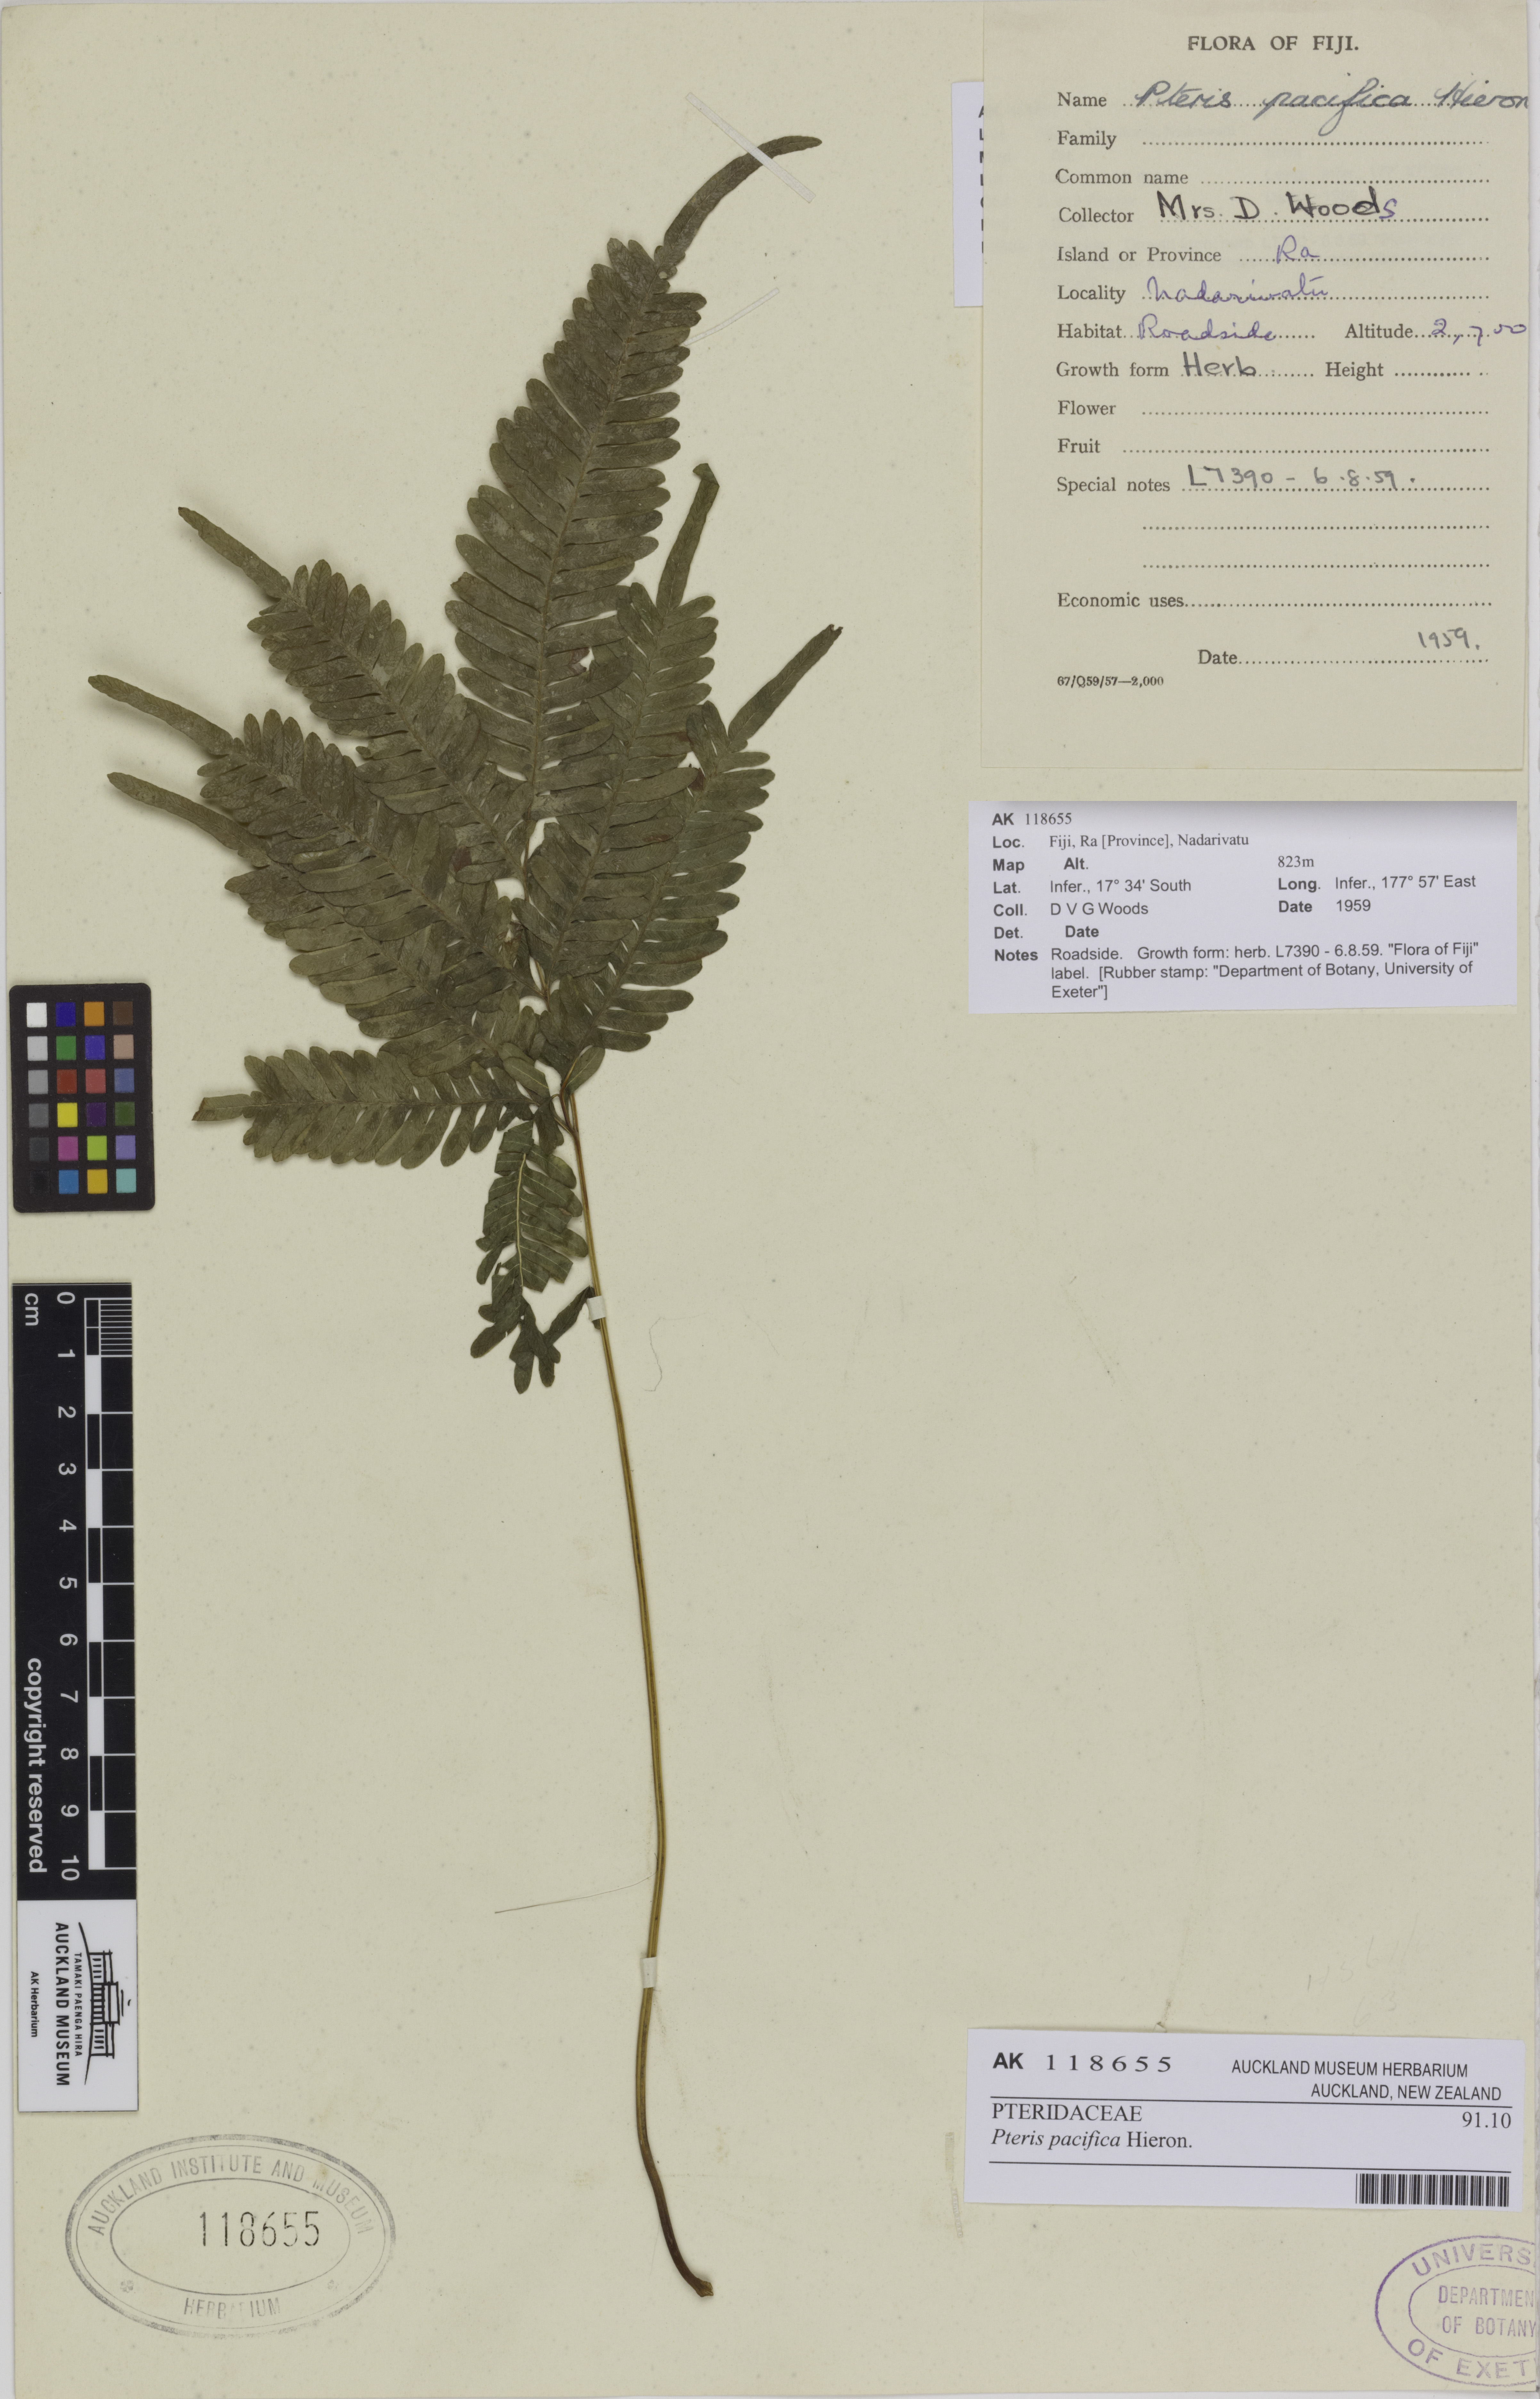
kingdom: Plantae
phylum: Tracheophyta
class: Polypodiopsida
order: Polypodiales
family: Pteridaceae
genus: Pteris
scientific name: Pteris biaurita
